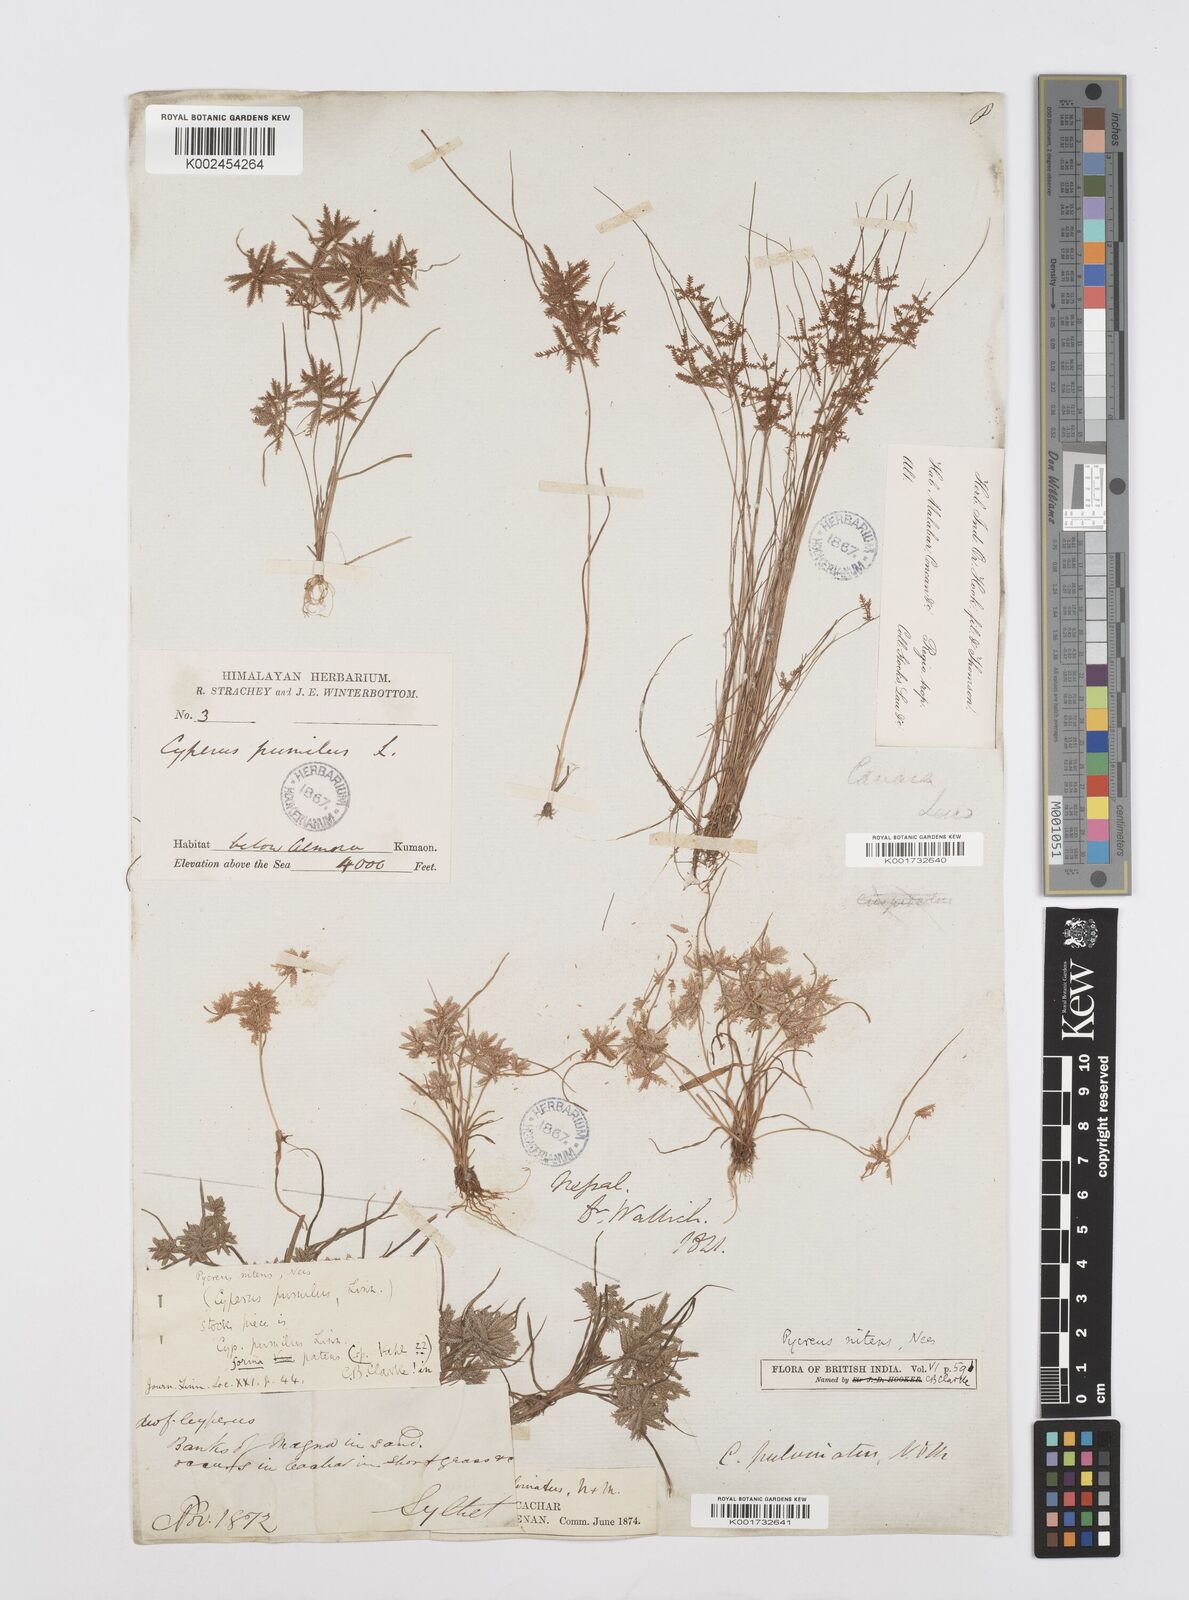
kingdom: Plantae
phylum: Tracheophyta
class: Liliopsida
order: Poales
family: Cyperaceae
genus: Cyperus
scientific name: Cyperus pumilus
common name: Low flatsedge
